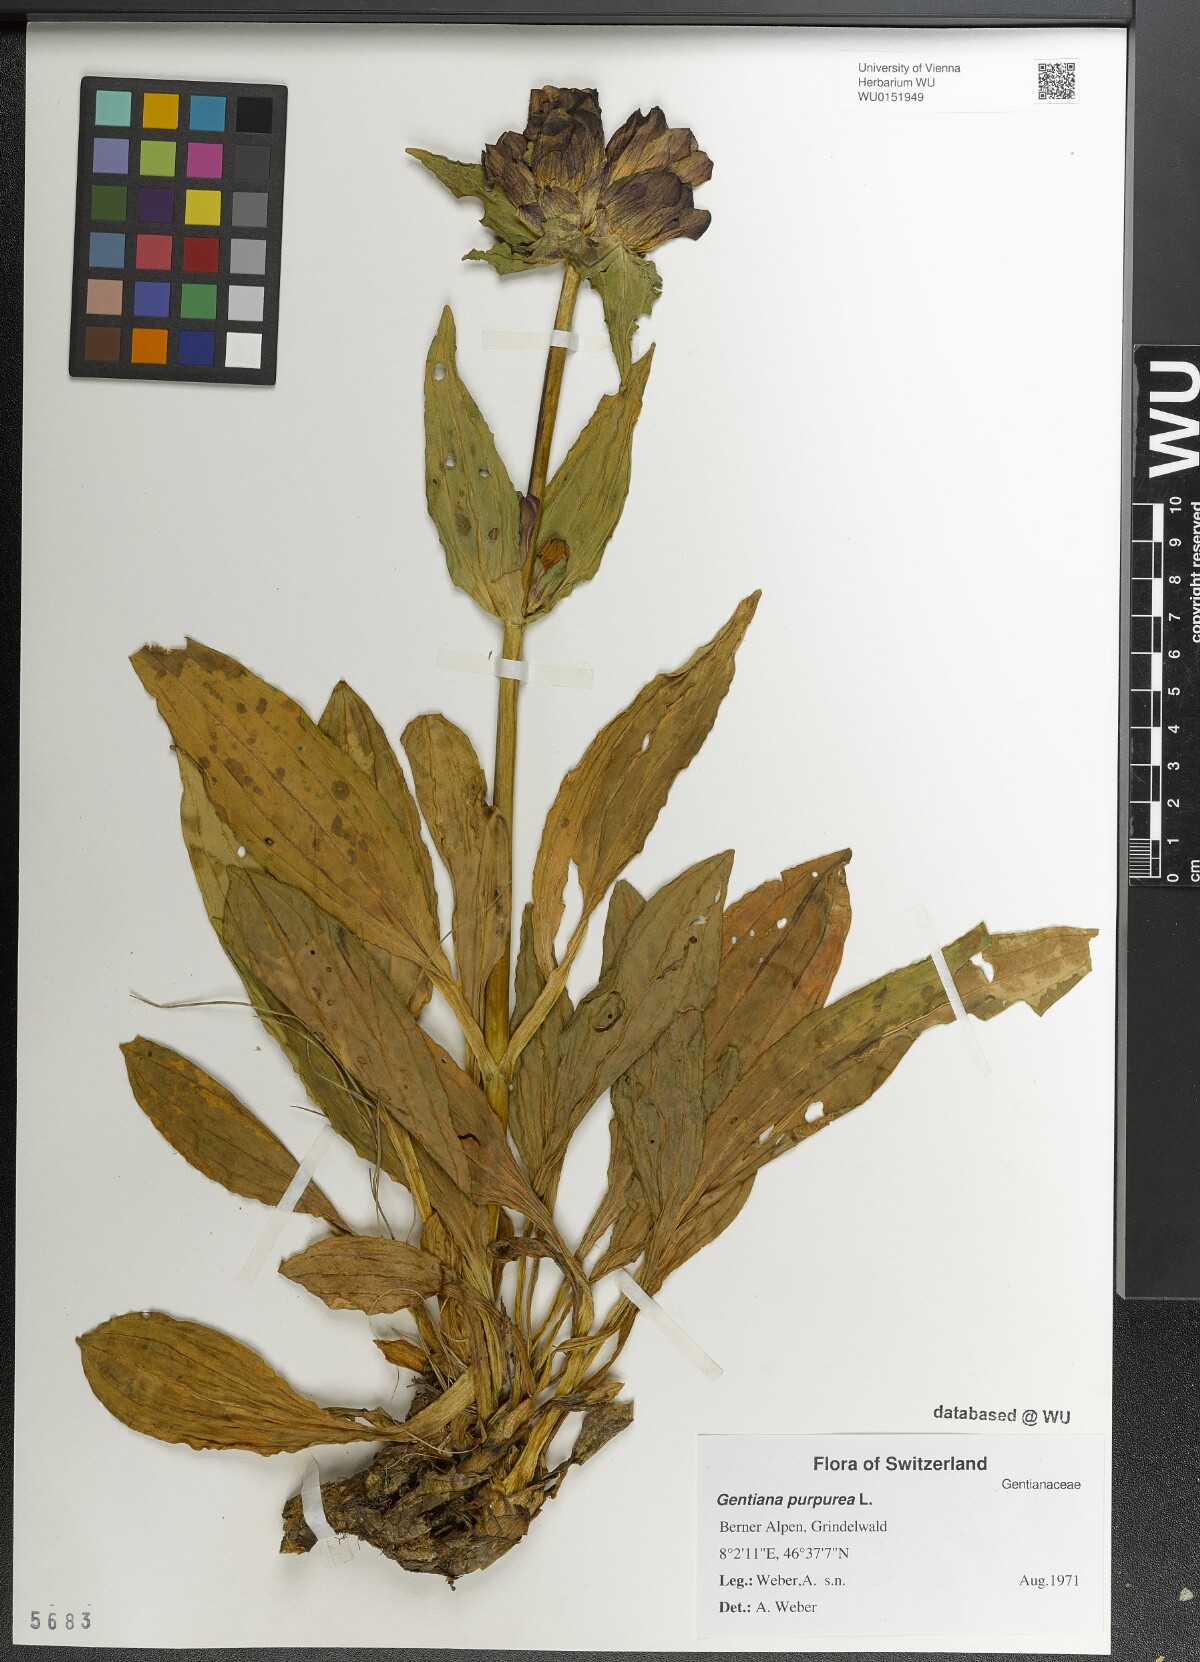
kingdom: Plantae
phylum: Tracheophyta
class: Magnoliopsida
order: Gentianales
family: Gentianaceae
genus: Gentiana
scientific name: Gentiana purpurea
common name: Purple gentian
